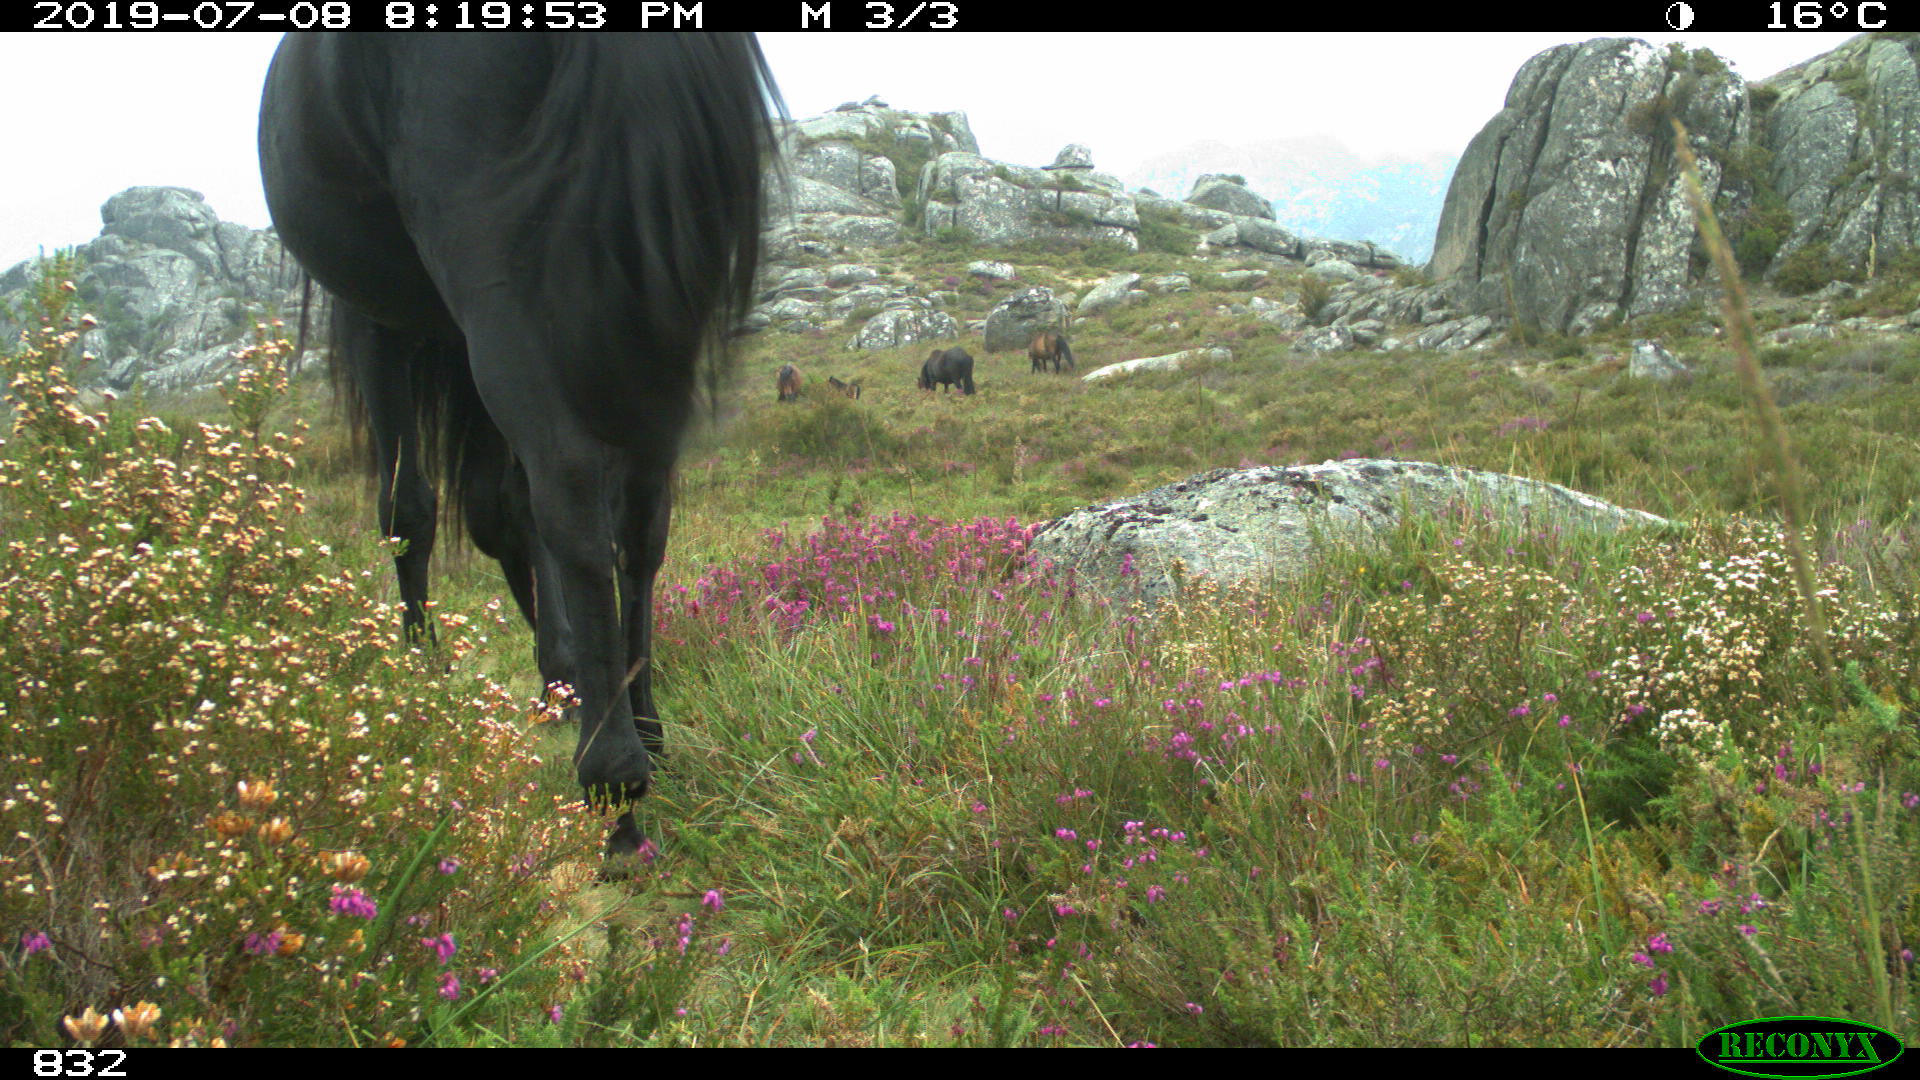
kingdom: Animalia
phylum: Chordata
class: Mammalia
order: Perissodactyla
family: Equidae
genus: Equus
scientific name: Equus caballus
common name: Horse
